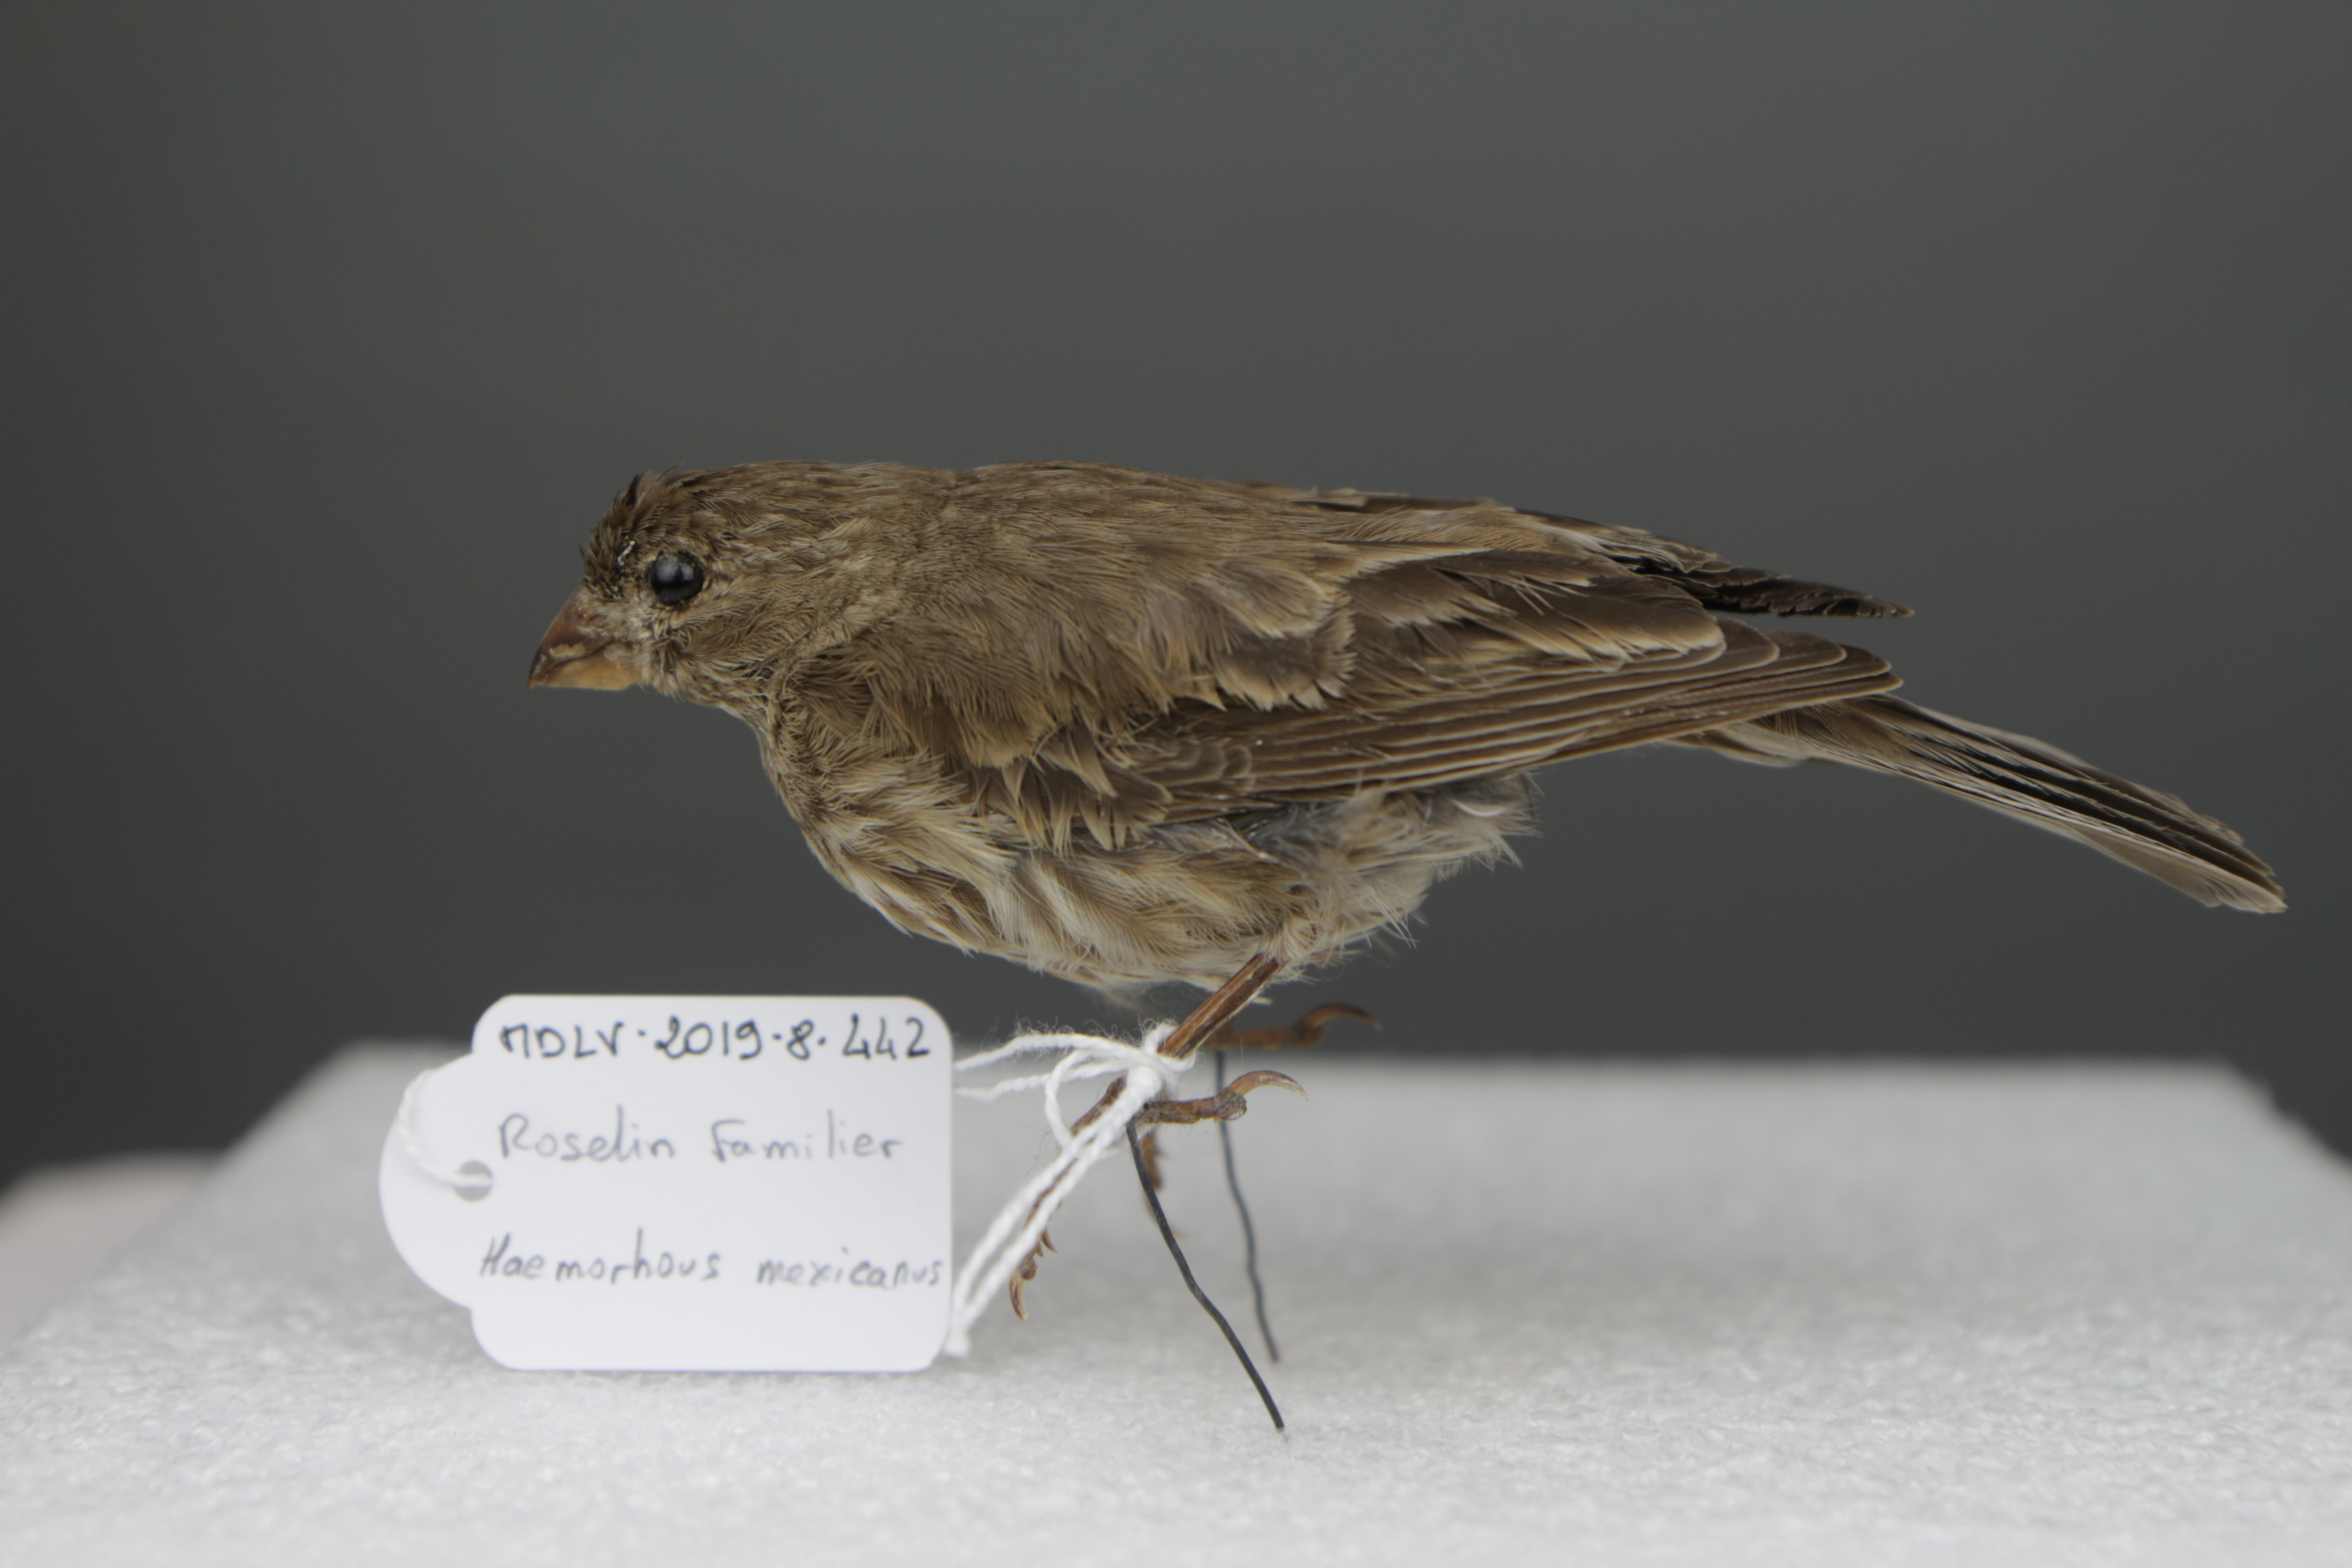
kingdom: Animalia
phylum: Chordata
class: Aves
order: Passeriformes
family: Fringillidae
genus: Haemorhous
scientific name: Haemorhous mexicanus
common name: House finch
